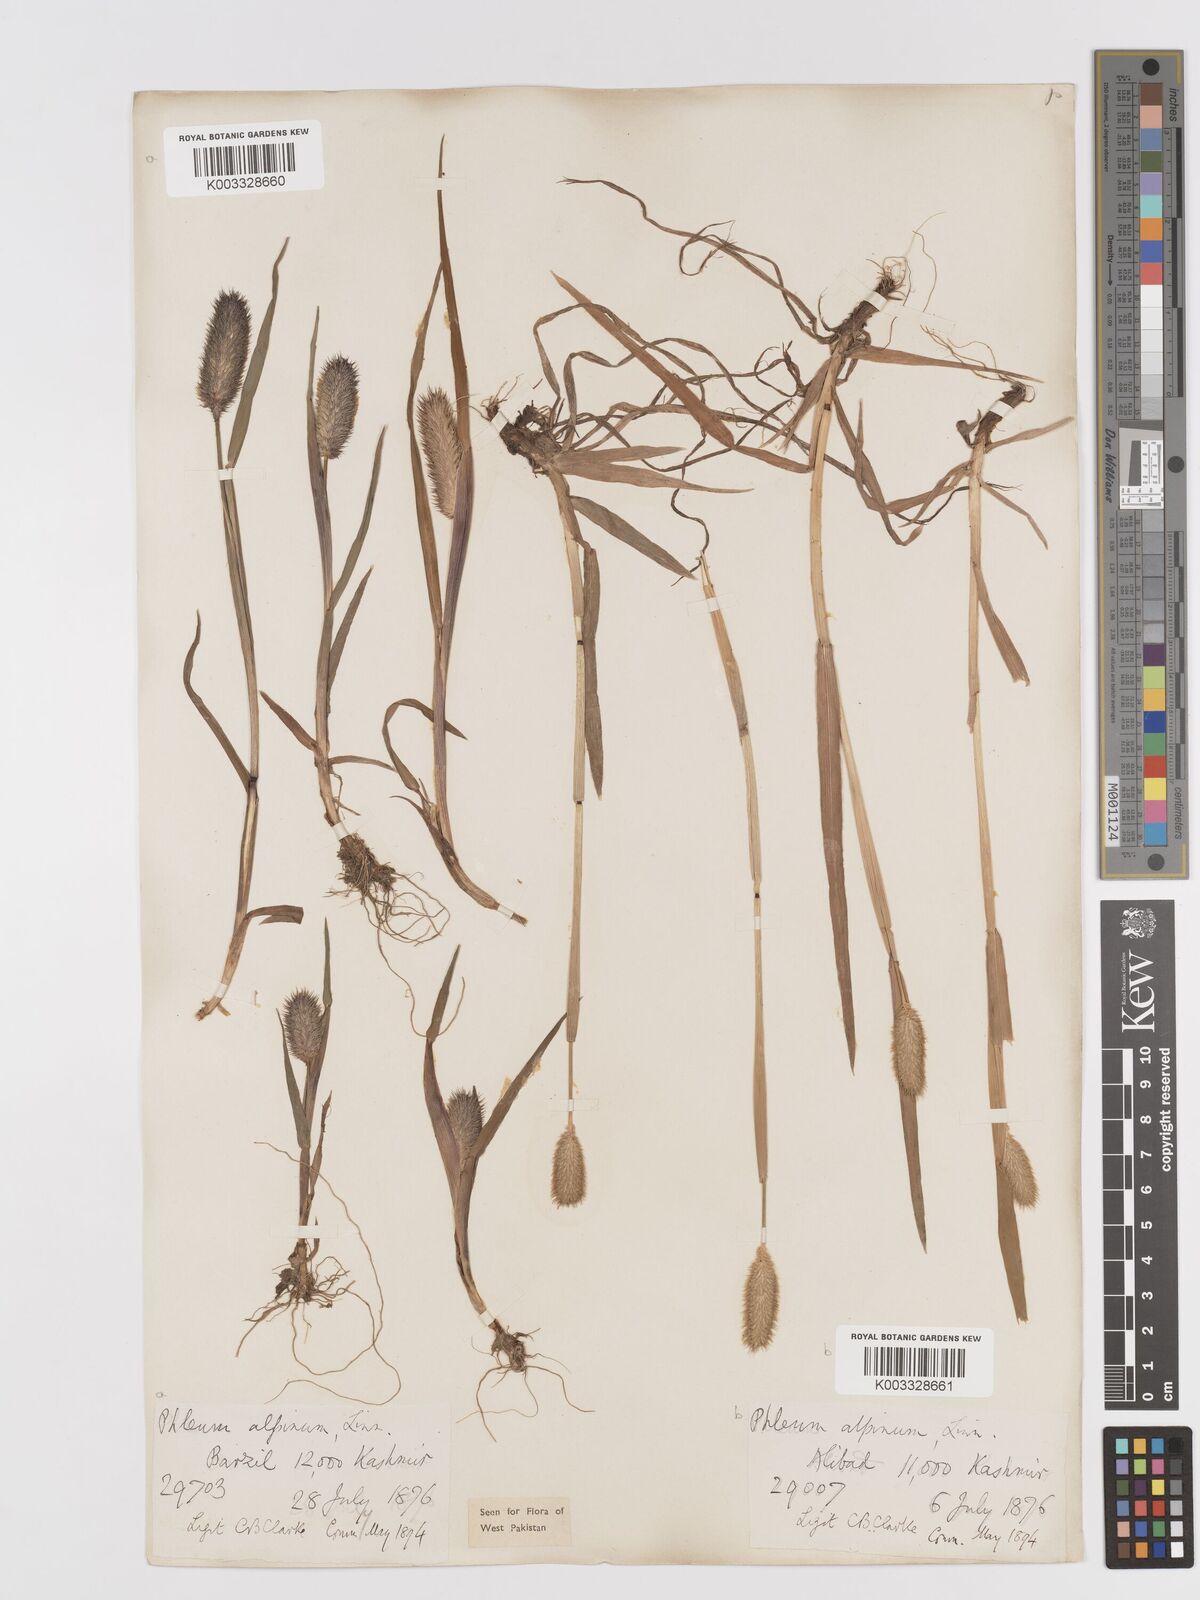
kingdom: Plantae
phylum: Tracheophyta
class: Liliopsida
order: Poales
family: Poaceae
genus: Phleum
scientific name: Phleum alpinum
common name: Alpine cat's-tail
